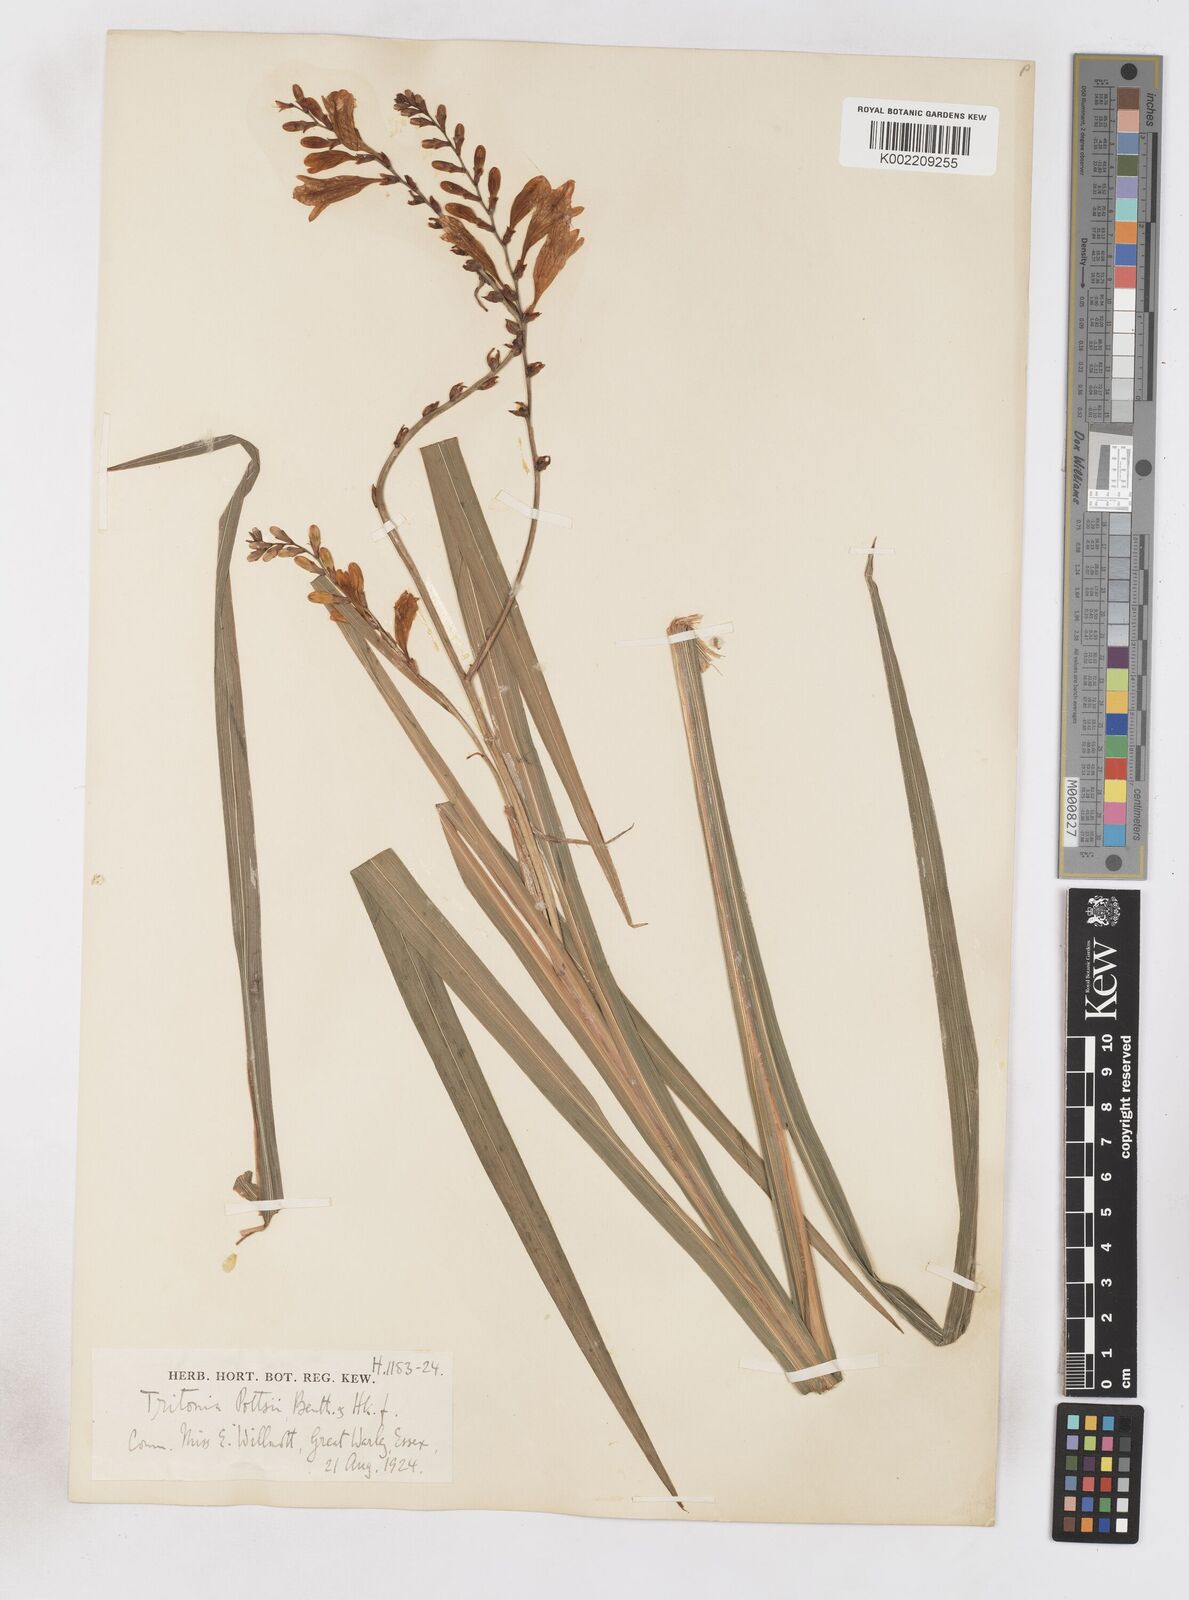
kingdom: Plantae
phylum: Tracheophyta
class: Liliopsida
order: Asparagales
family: Iridaceae
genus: Crocosmia
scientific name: Crocosmia pottsii
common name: Pott's montbretia
